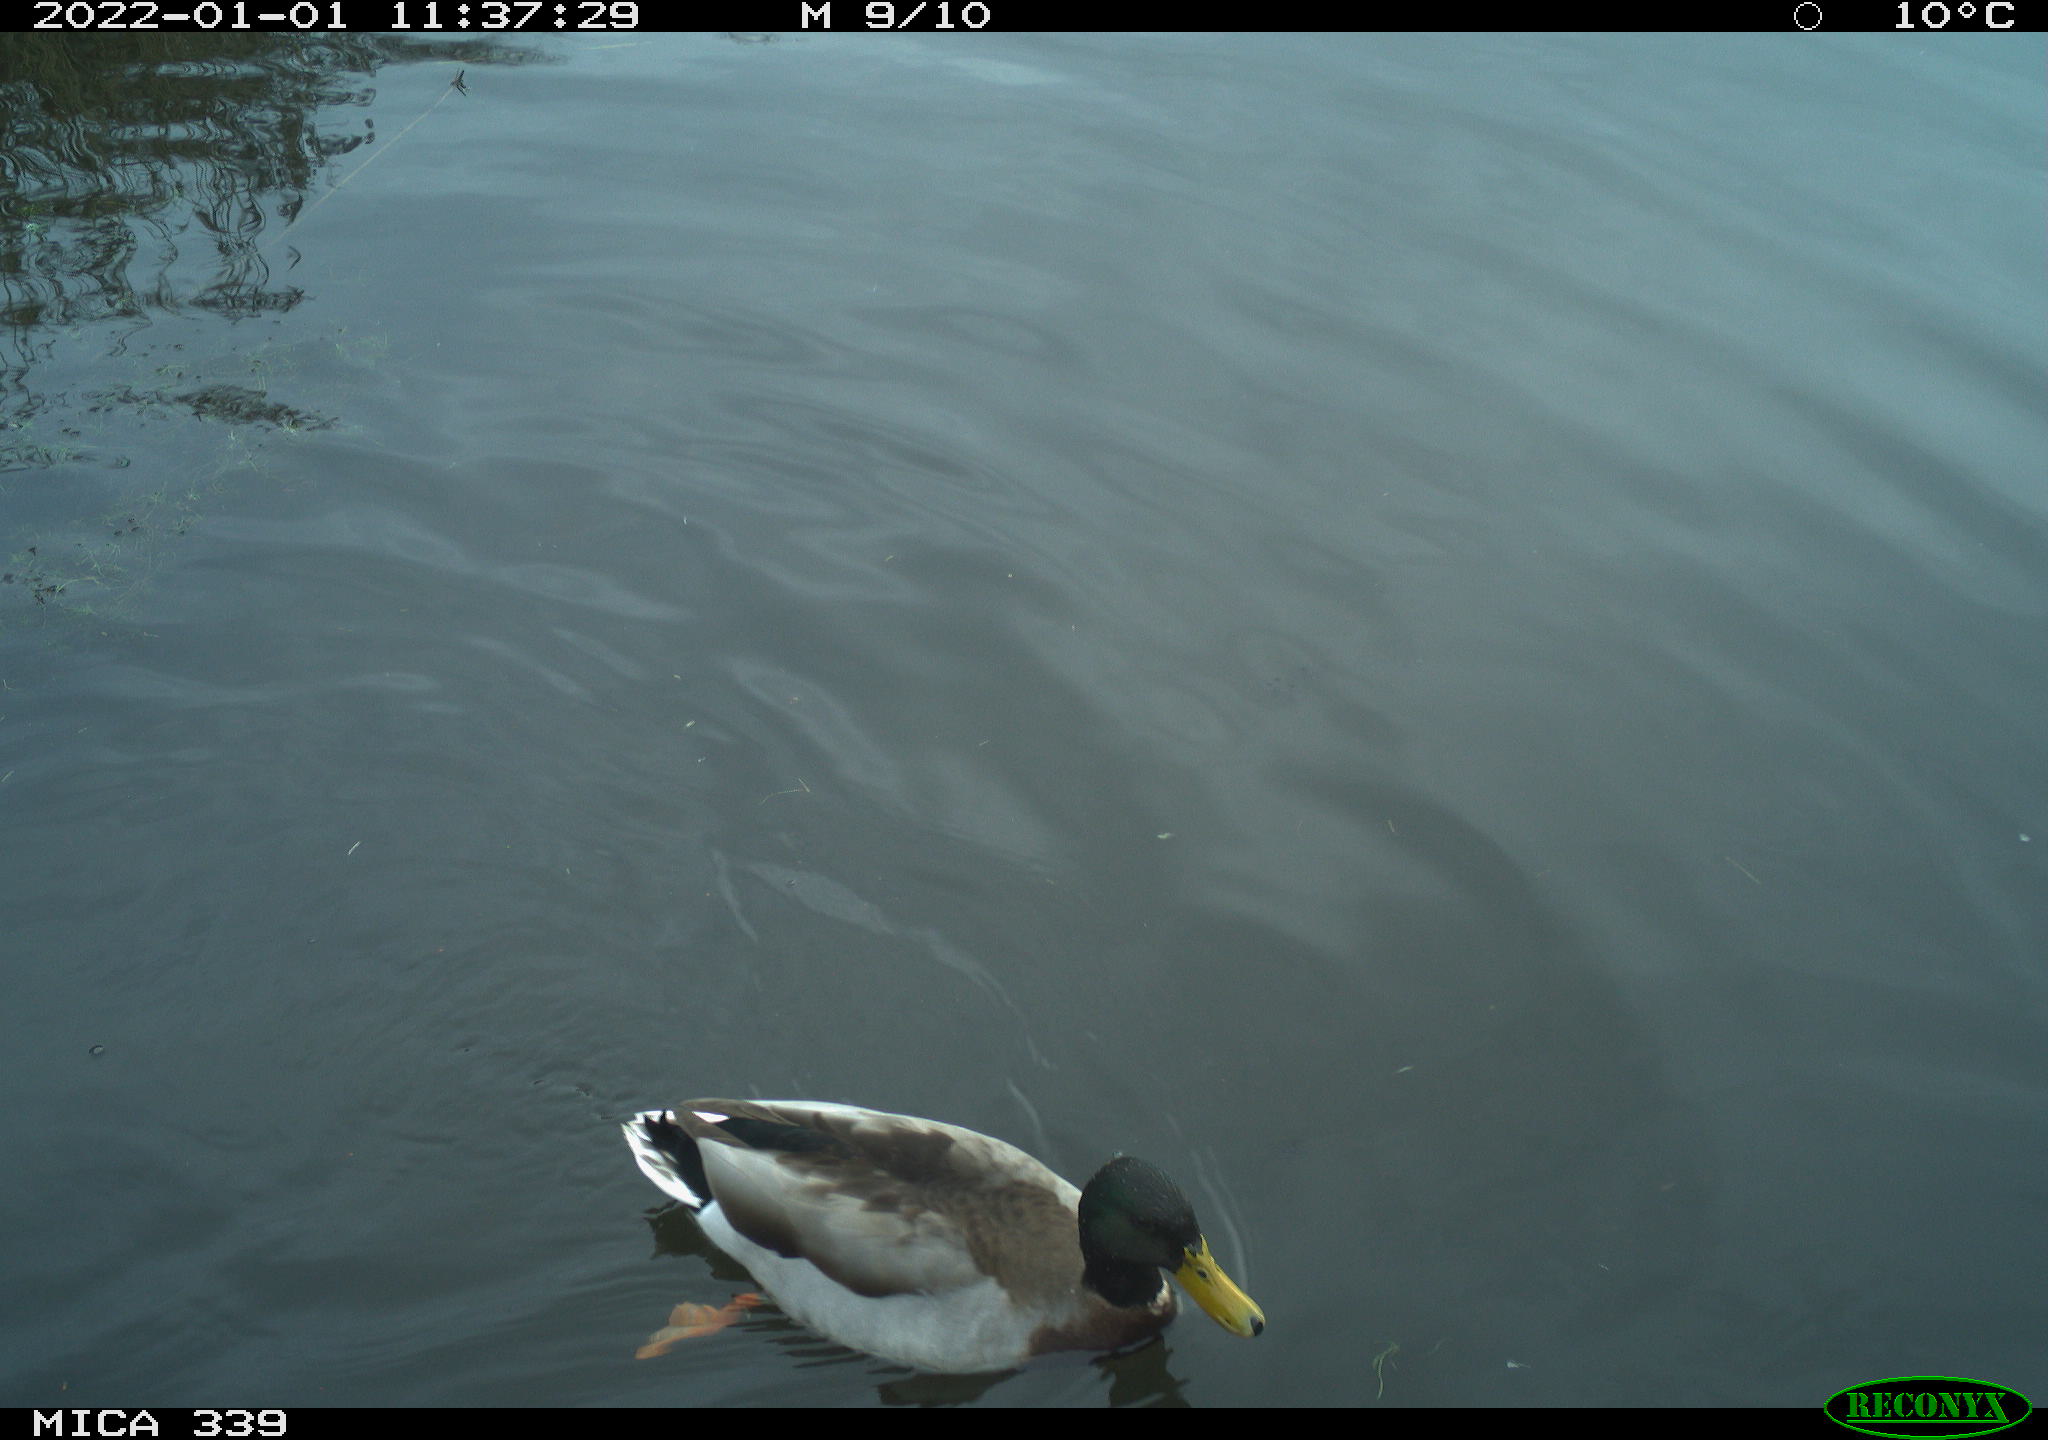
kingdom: Animalia
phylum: Chordata
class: Aves
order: Anseriformes
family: Anatidae
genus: Anas
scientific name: Anas platyrhynchos
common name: Mallard
